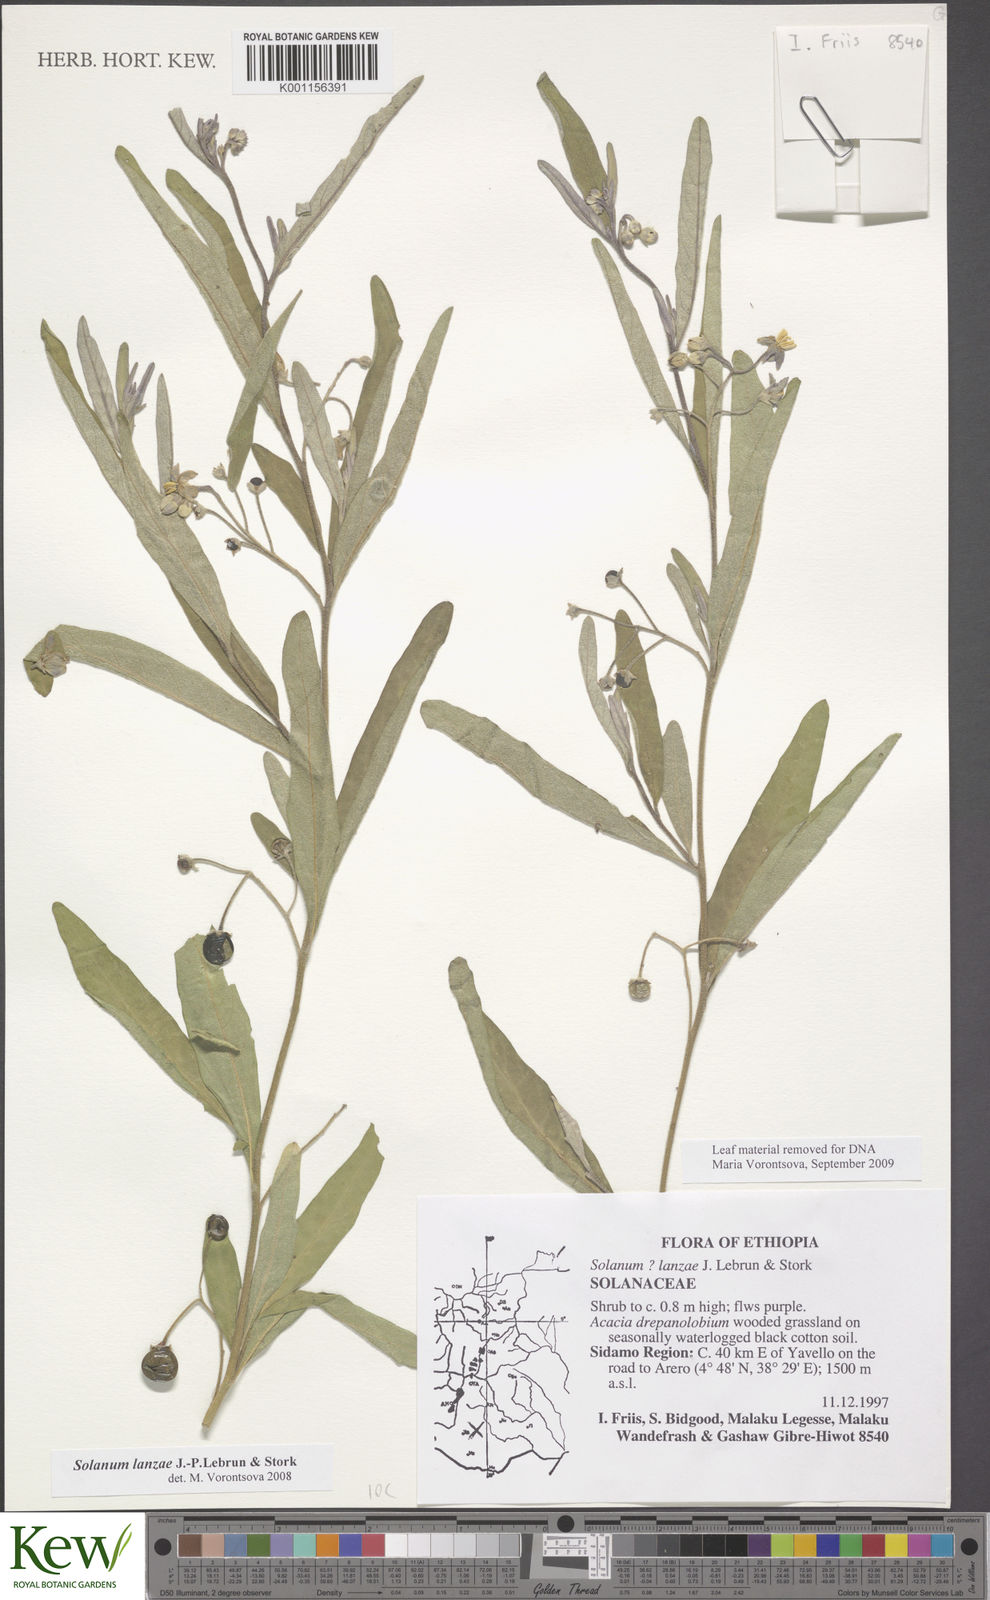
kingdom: Plantae
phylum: Tracheophyta
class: Magnoliopsida
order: Solanales
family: Solanaceae
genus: Solanum
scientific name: Solanum lanzae
